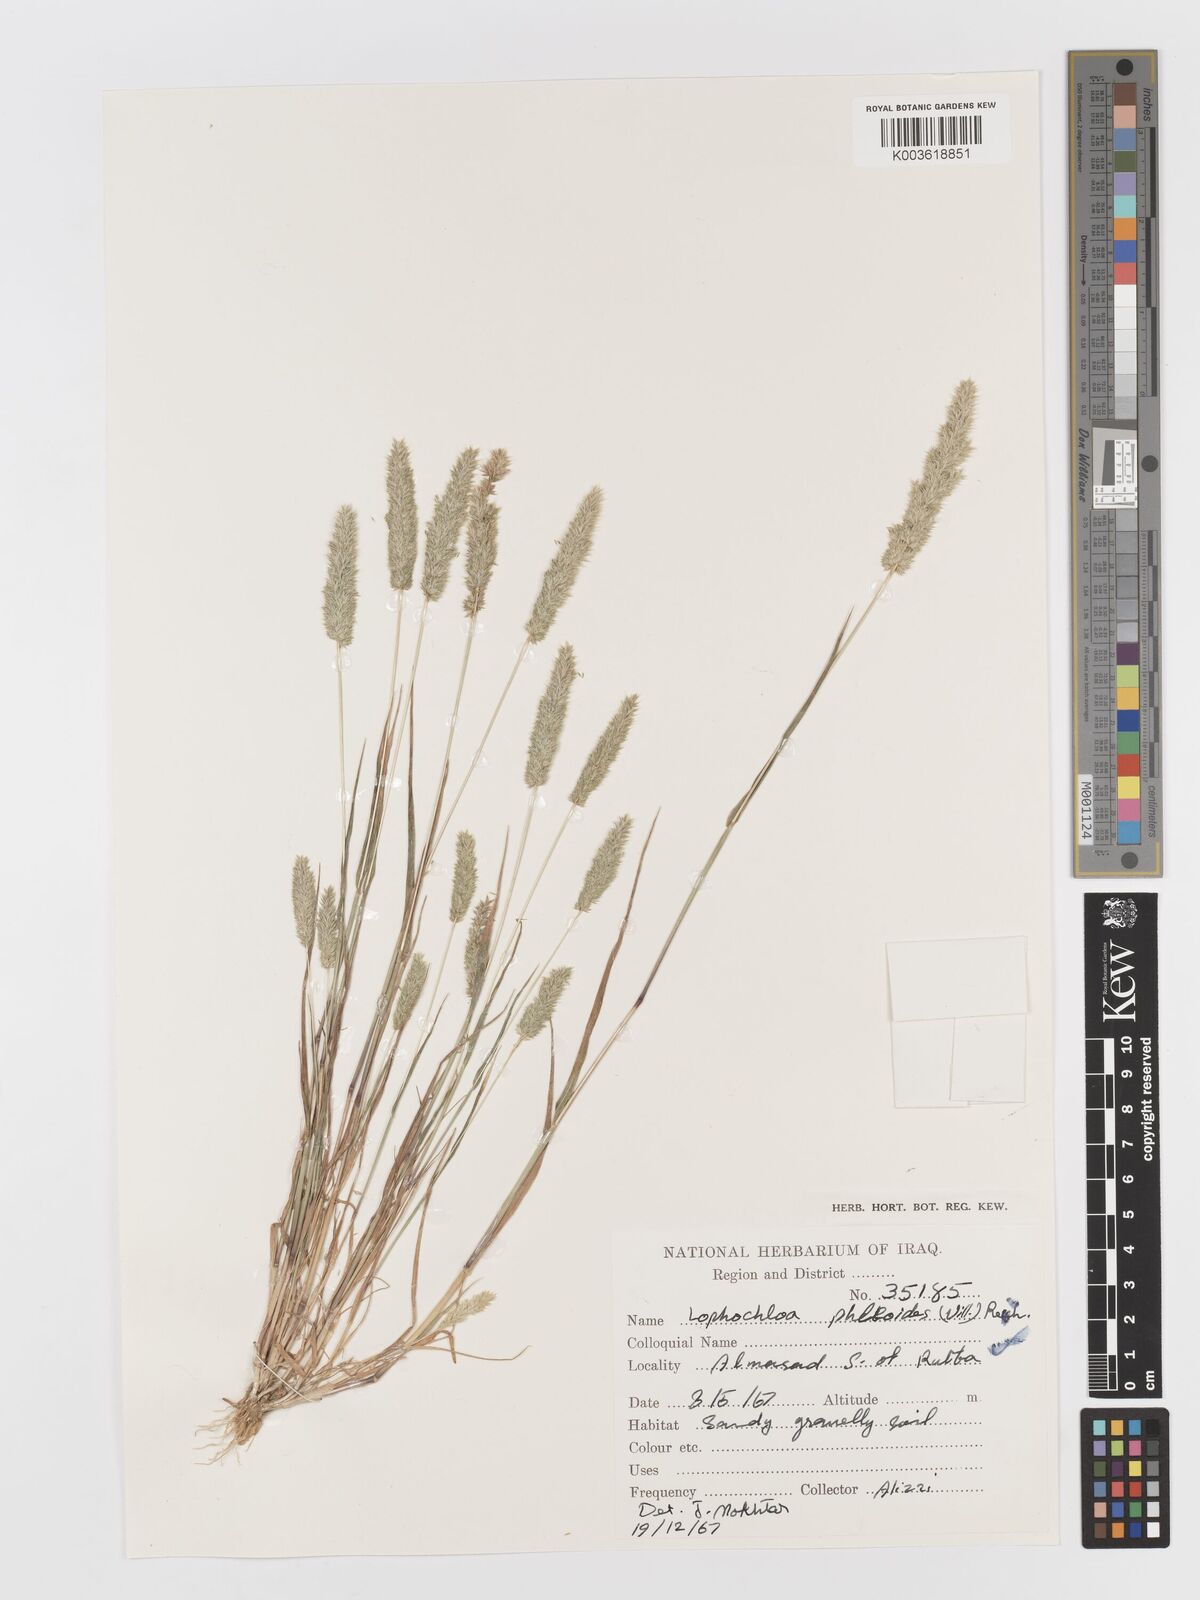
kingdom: Plantae
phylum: Tracheophyta
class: Liliopsida
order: Poales
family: Poaceae
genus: Rostraria
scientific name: Rostraria cristata
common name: Mediterranean hair-grass
